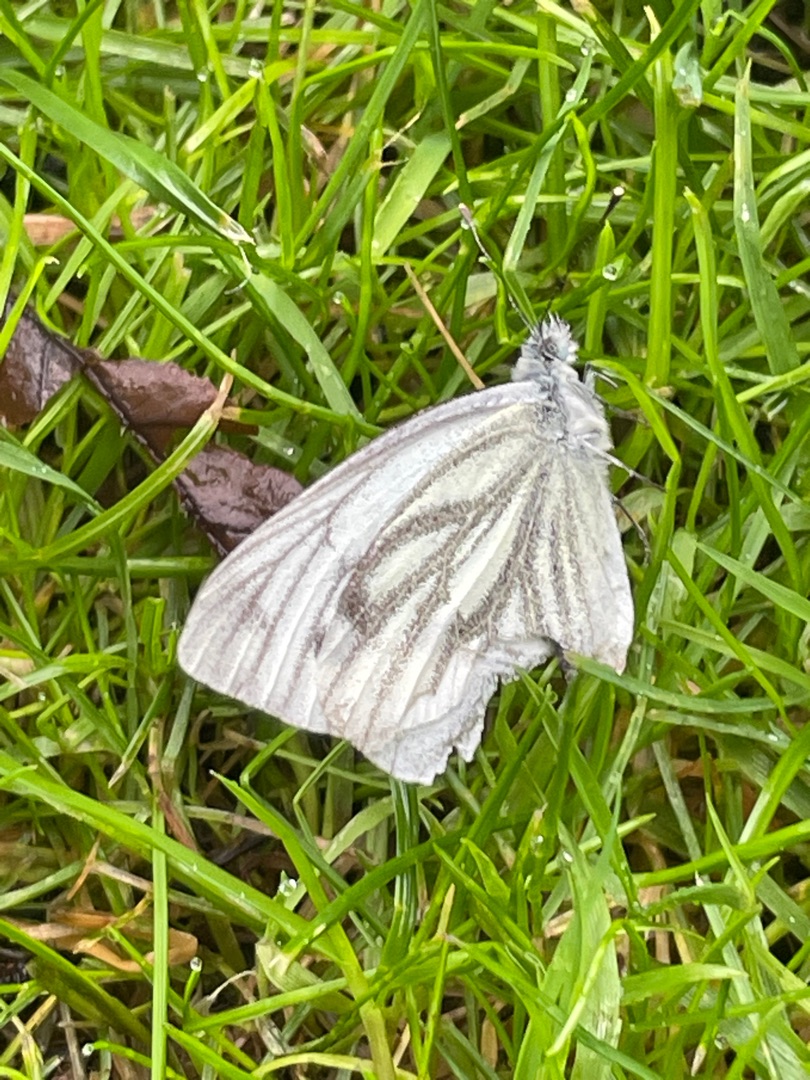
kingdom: Animalia
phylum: Arthropoda
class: Insecta
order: Lepidoptera
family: Pieridae
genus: Pieris
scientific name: Pieris napi
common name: Grønåret kålsommerfugl
